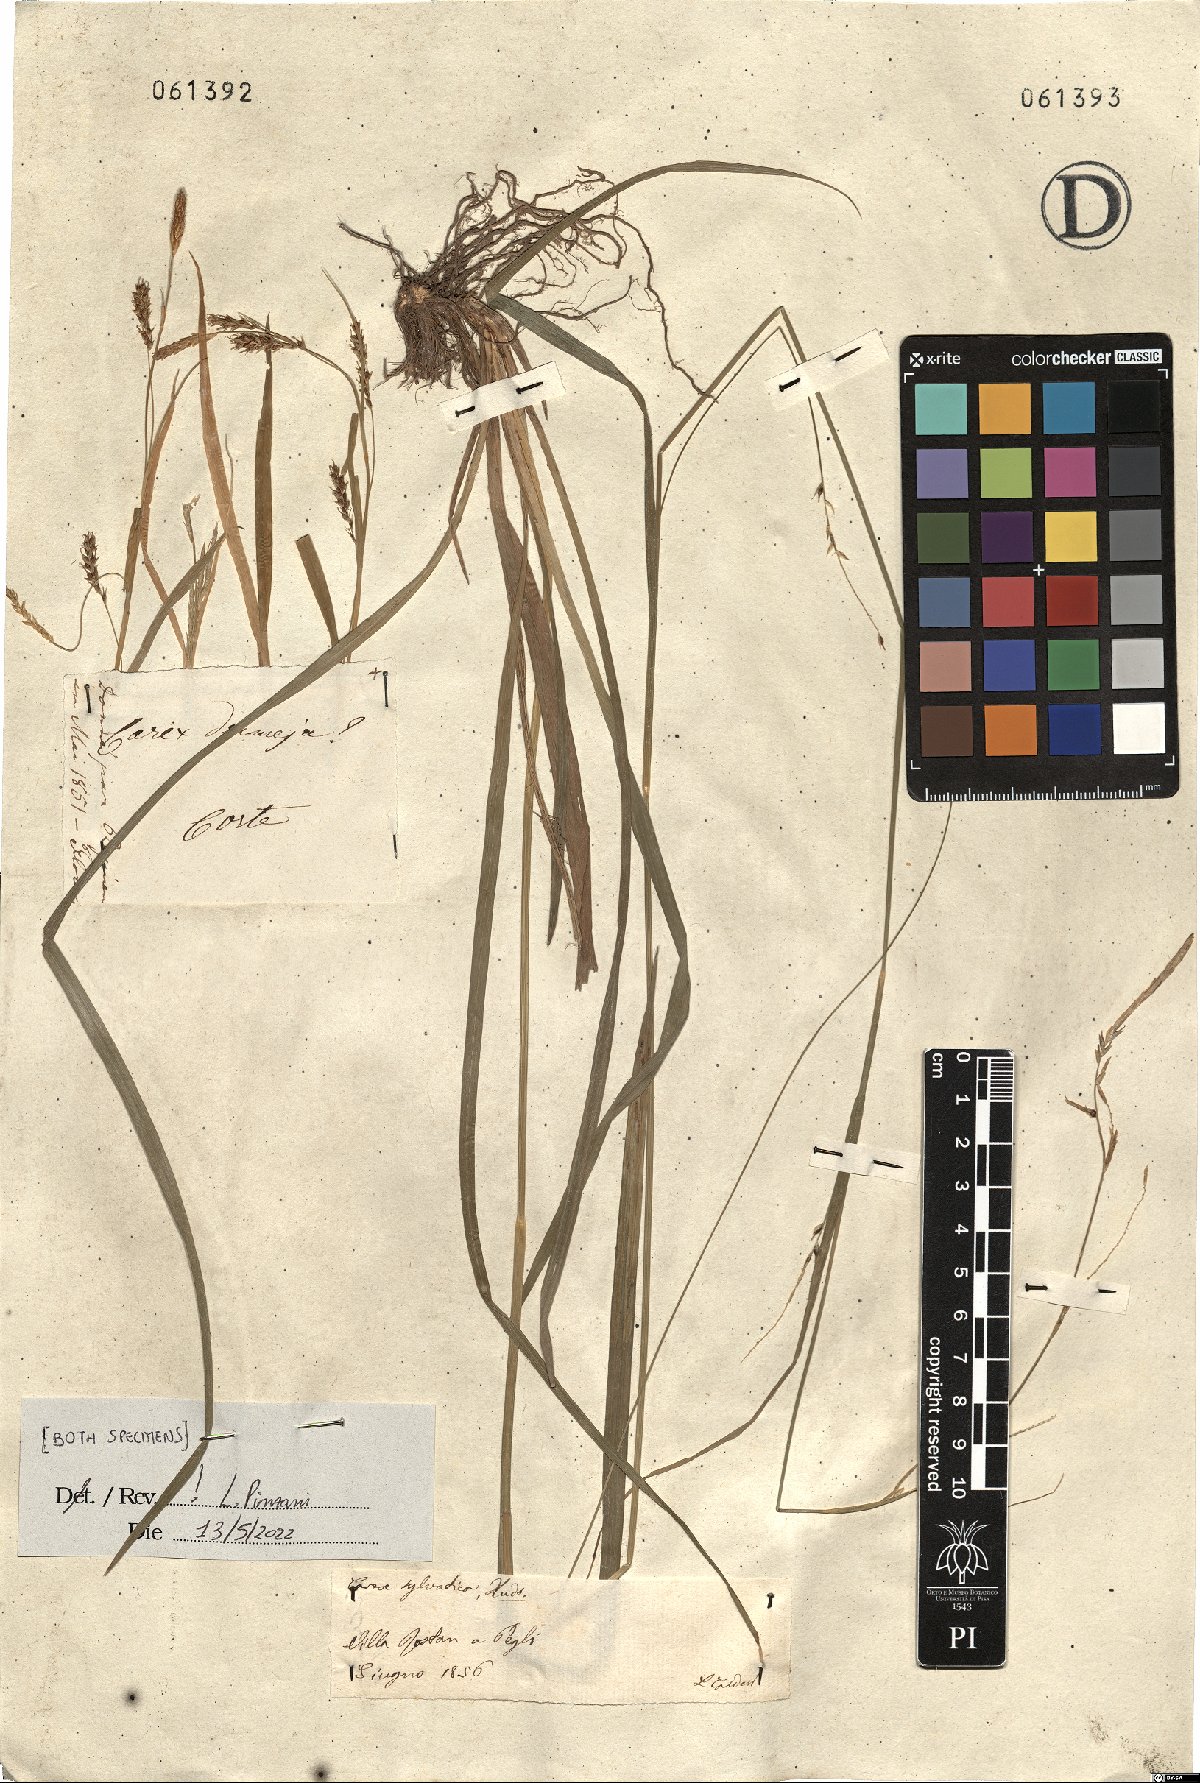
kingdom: Plantae
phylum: Tracheophyta
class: Liliopsida
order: Poales
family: Cyperaceae
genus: Carex
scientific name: Carex sylvatica
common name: Wood-sedge
